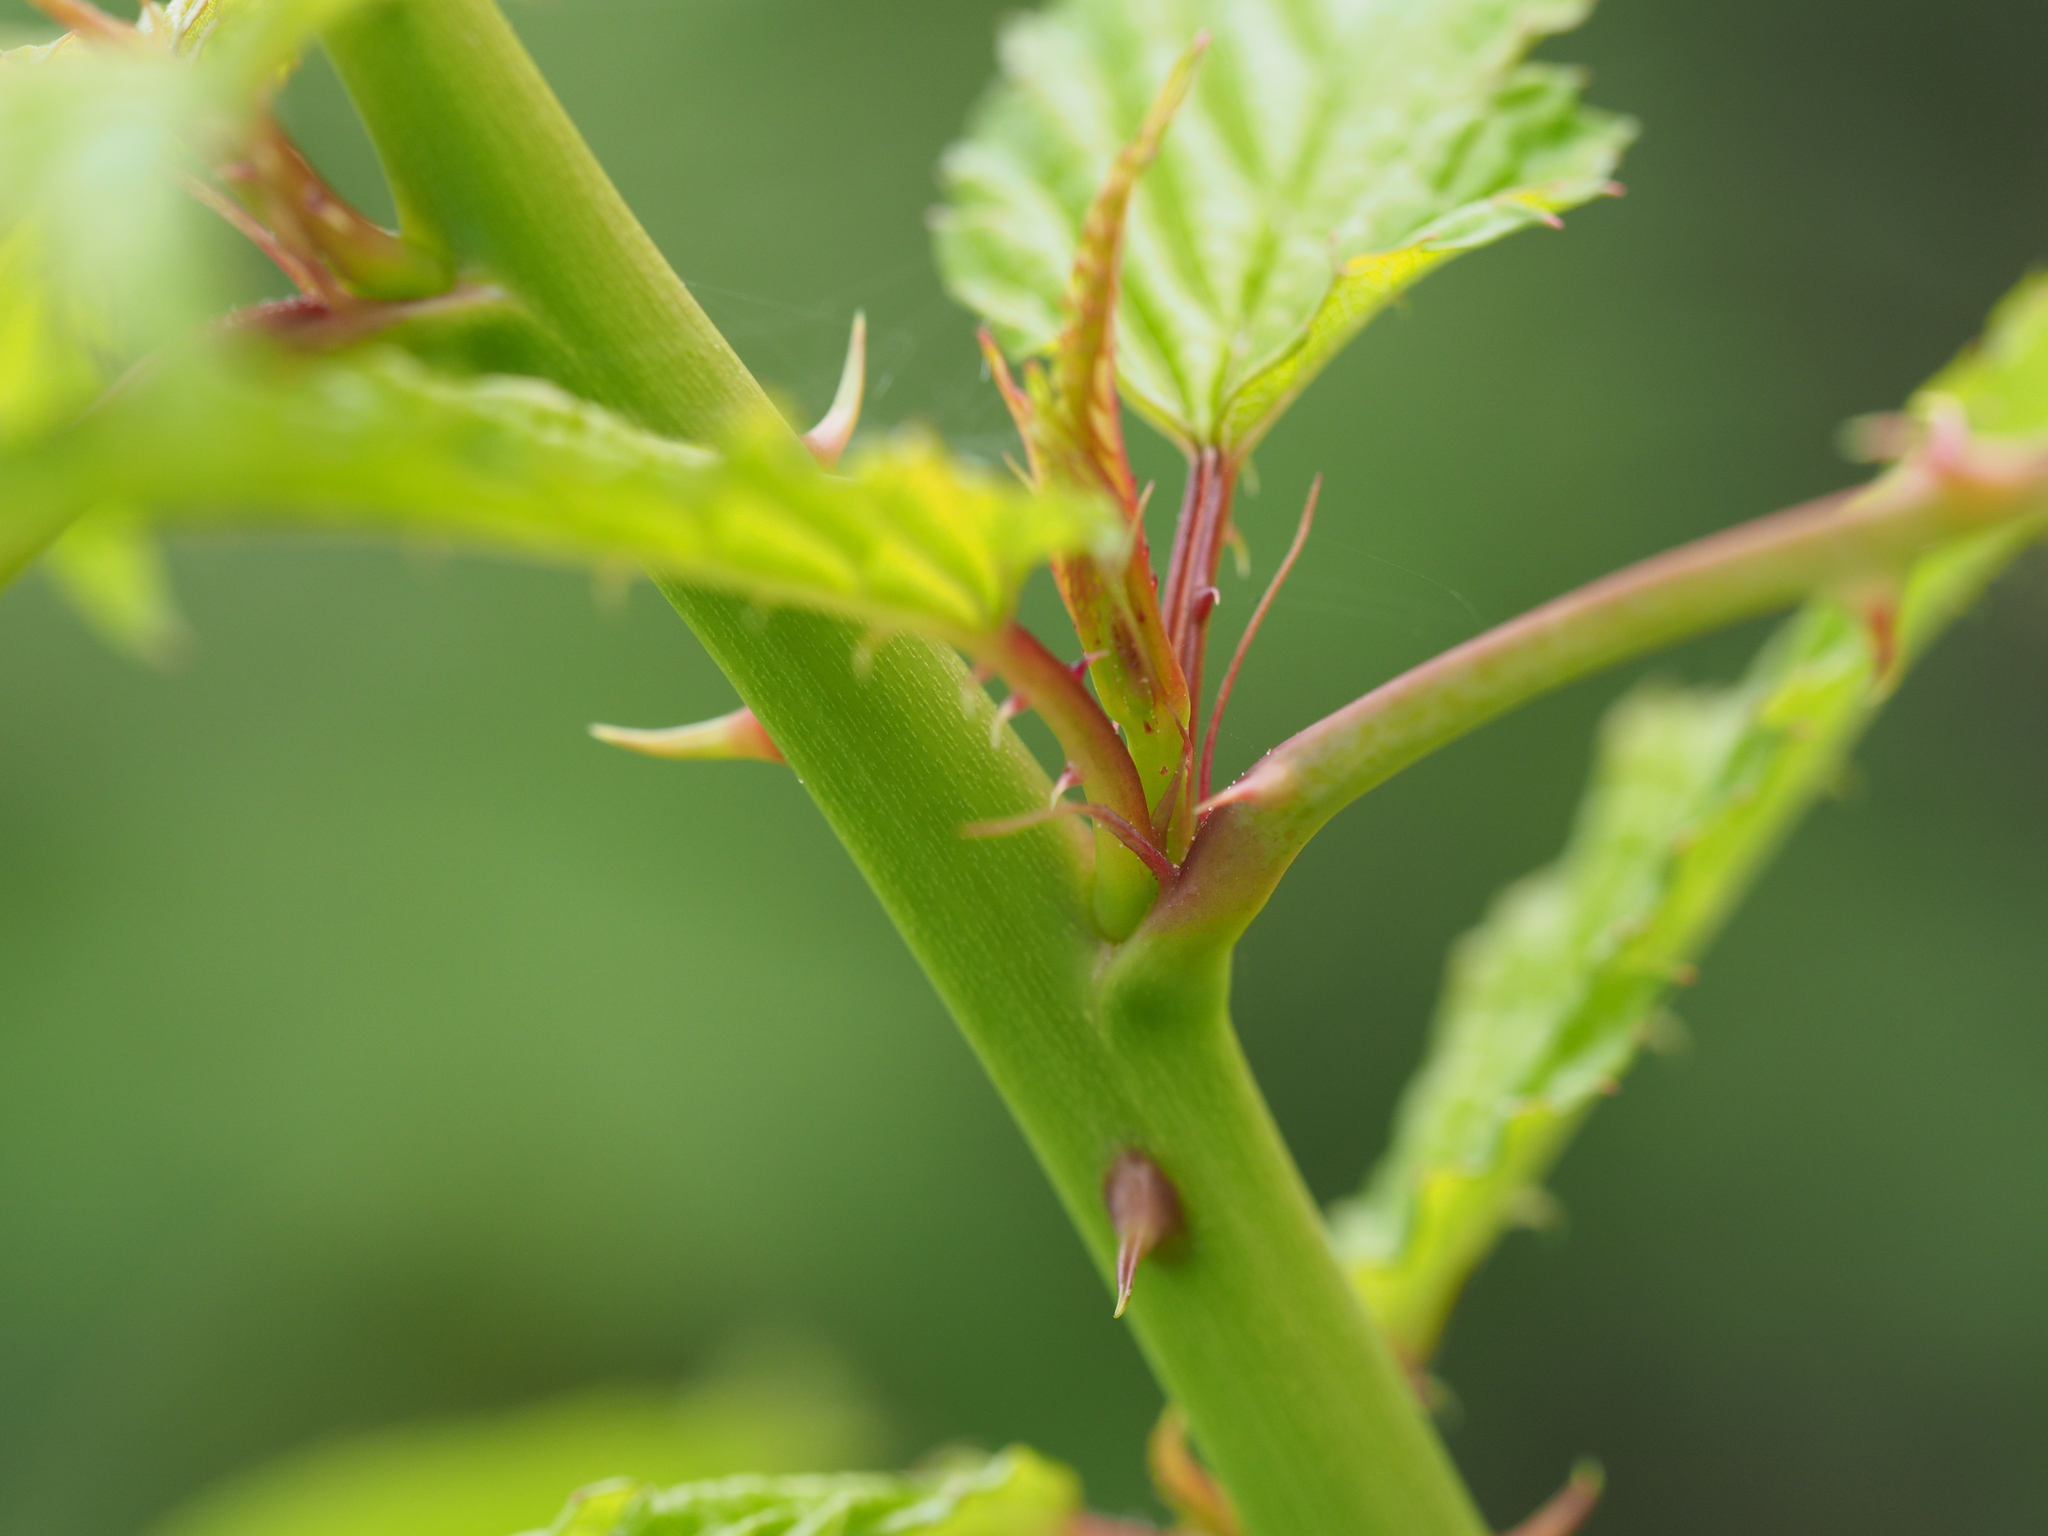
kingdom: Plantae
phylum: Tracheophyta
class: Magnoliopsida
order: Rosales
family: Rosaceae
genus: Rubus
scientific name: Rubus subcrataegifolius
